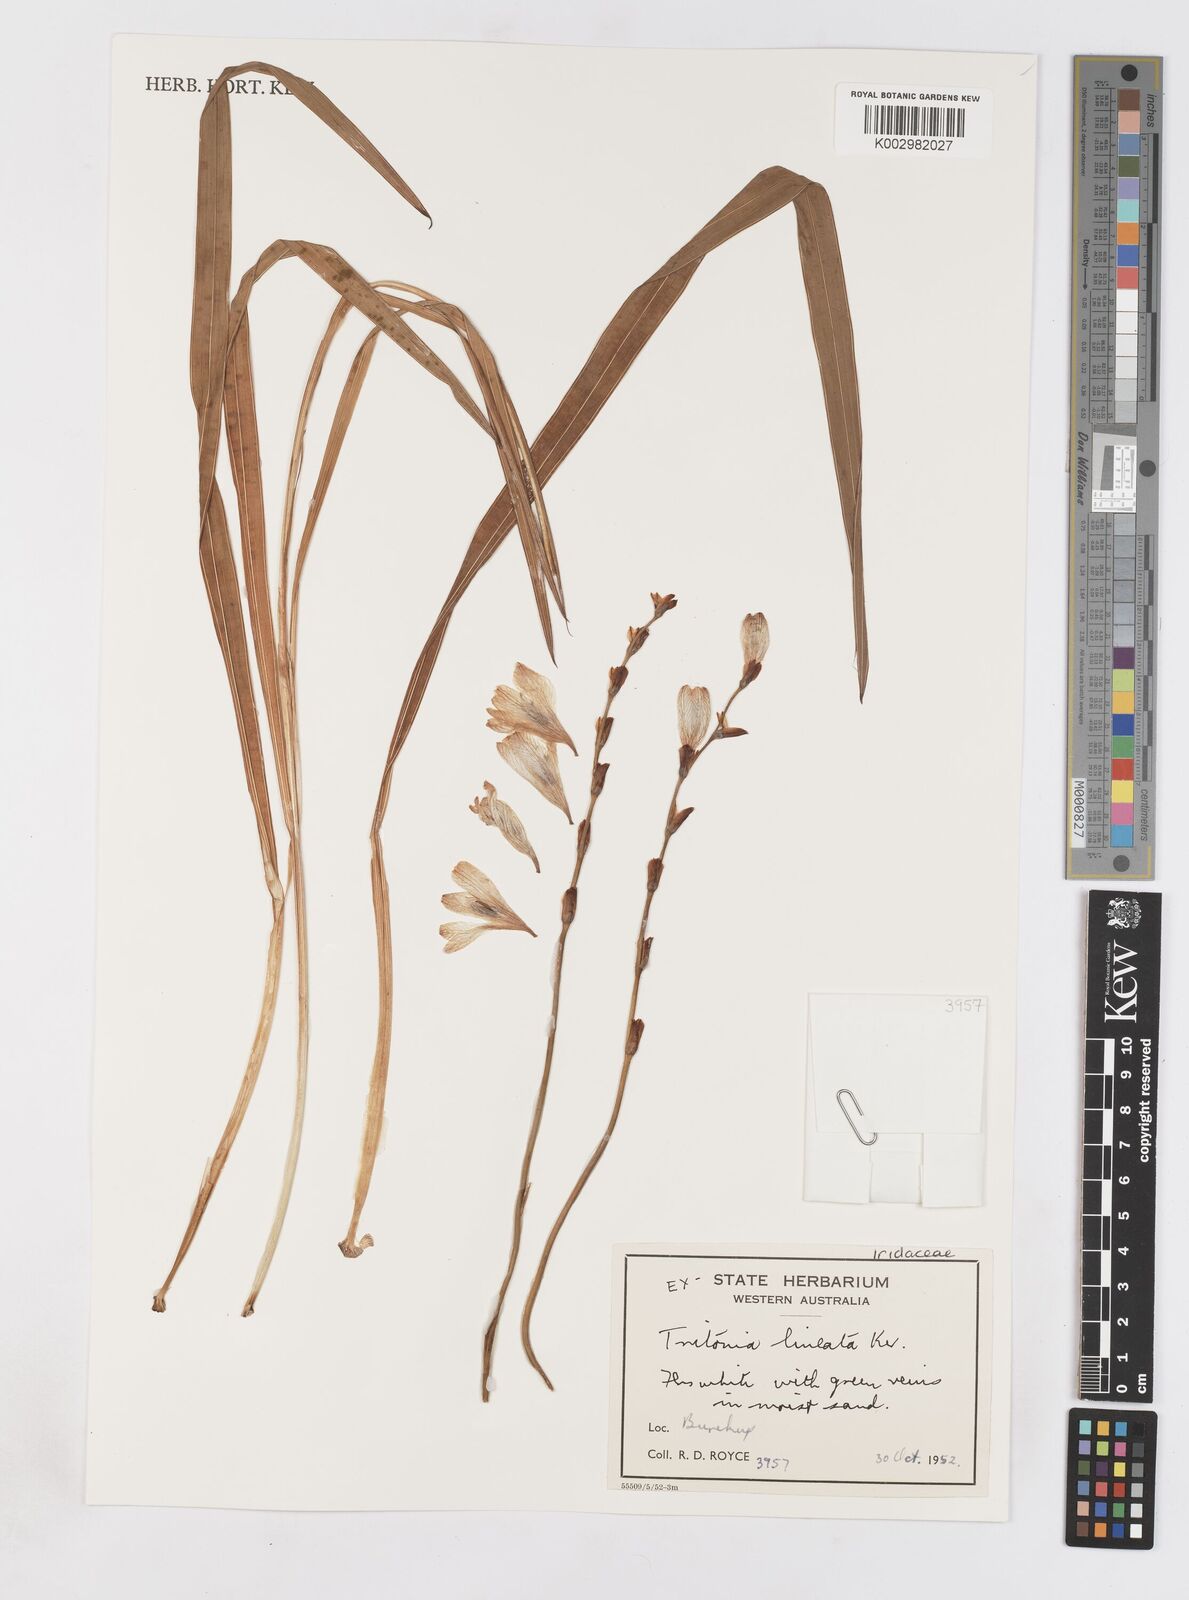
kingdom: Plantae
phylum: Tracheophyta
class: Liliopsida
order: Asparagales
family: Iridaceae
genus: Tritonia
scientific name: Tritonia gladiolaris
